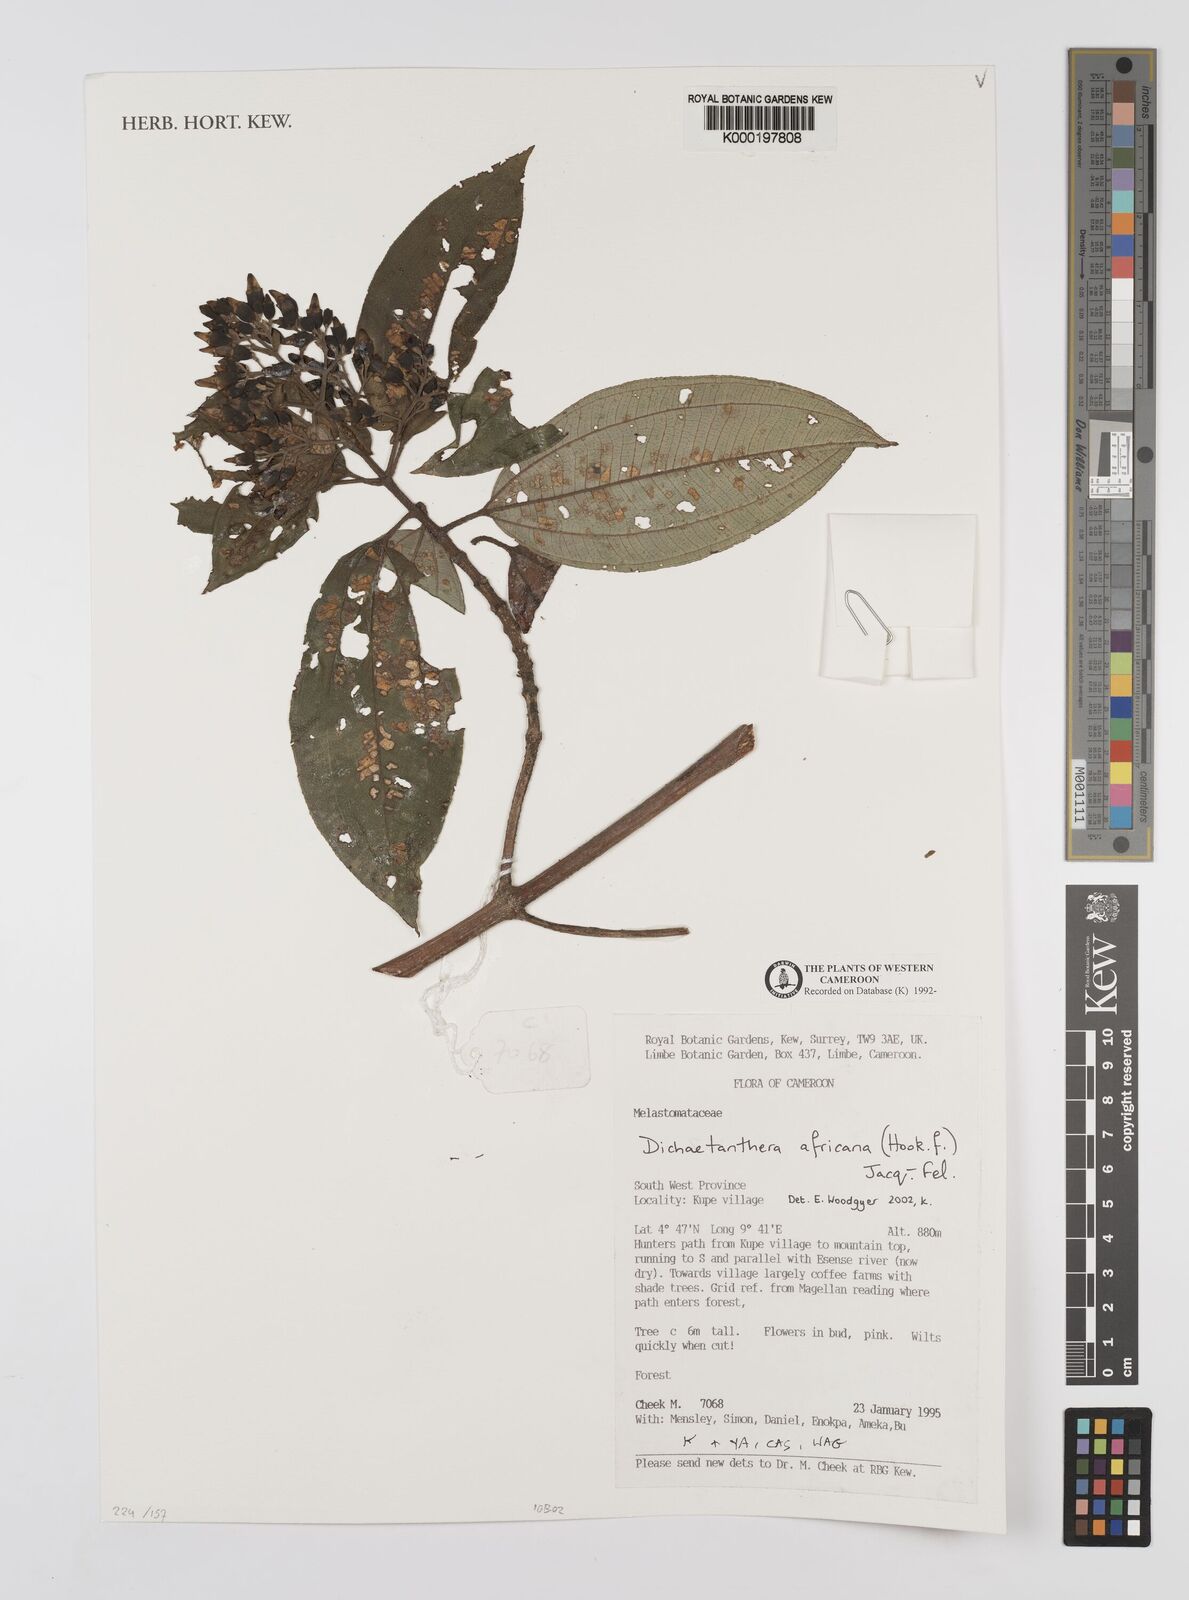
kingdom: Plantae
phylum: Tracheophyta
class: Magnoliopsida
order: Myrtales
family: Melastomataceae
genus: Dichaetanthera
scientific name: Dichaetanthera
